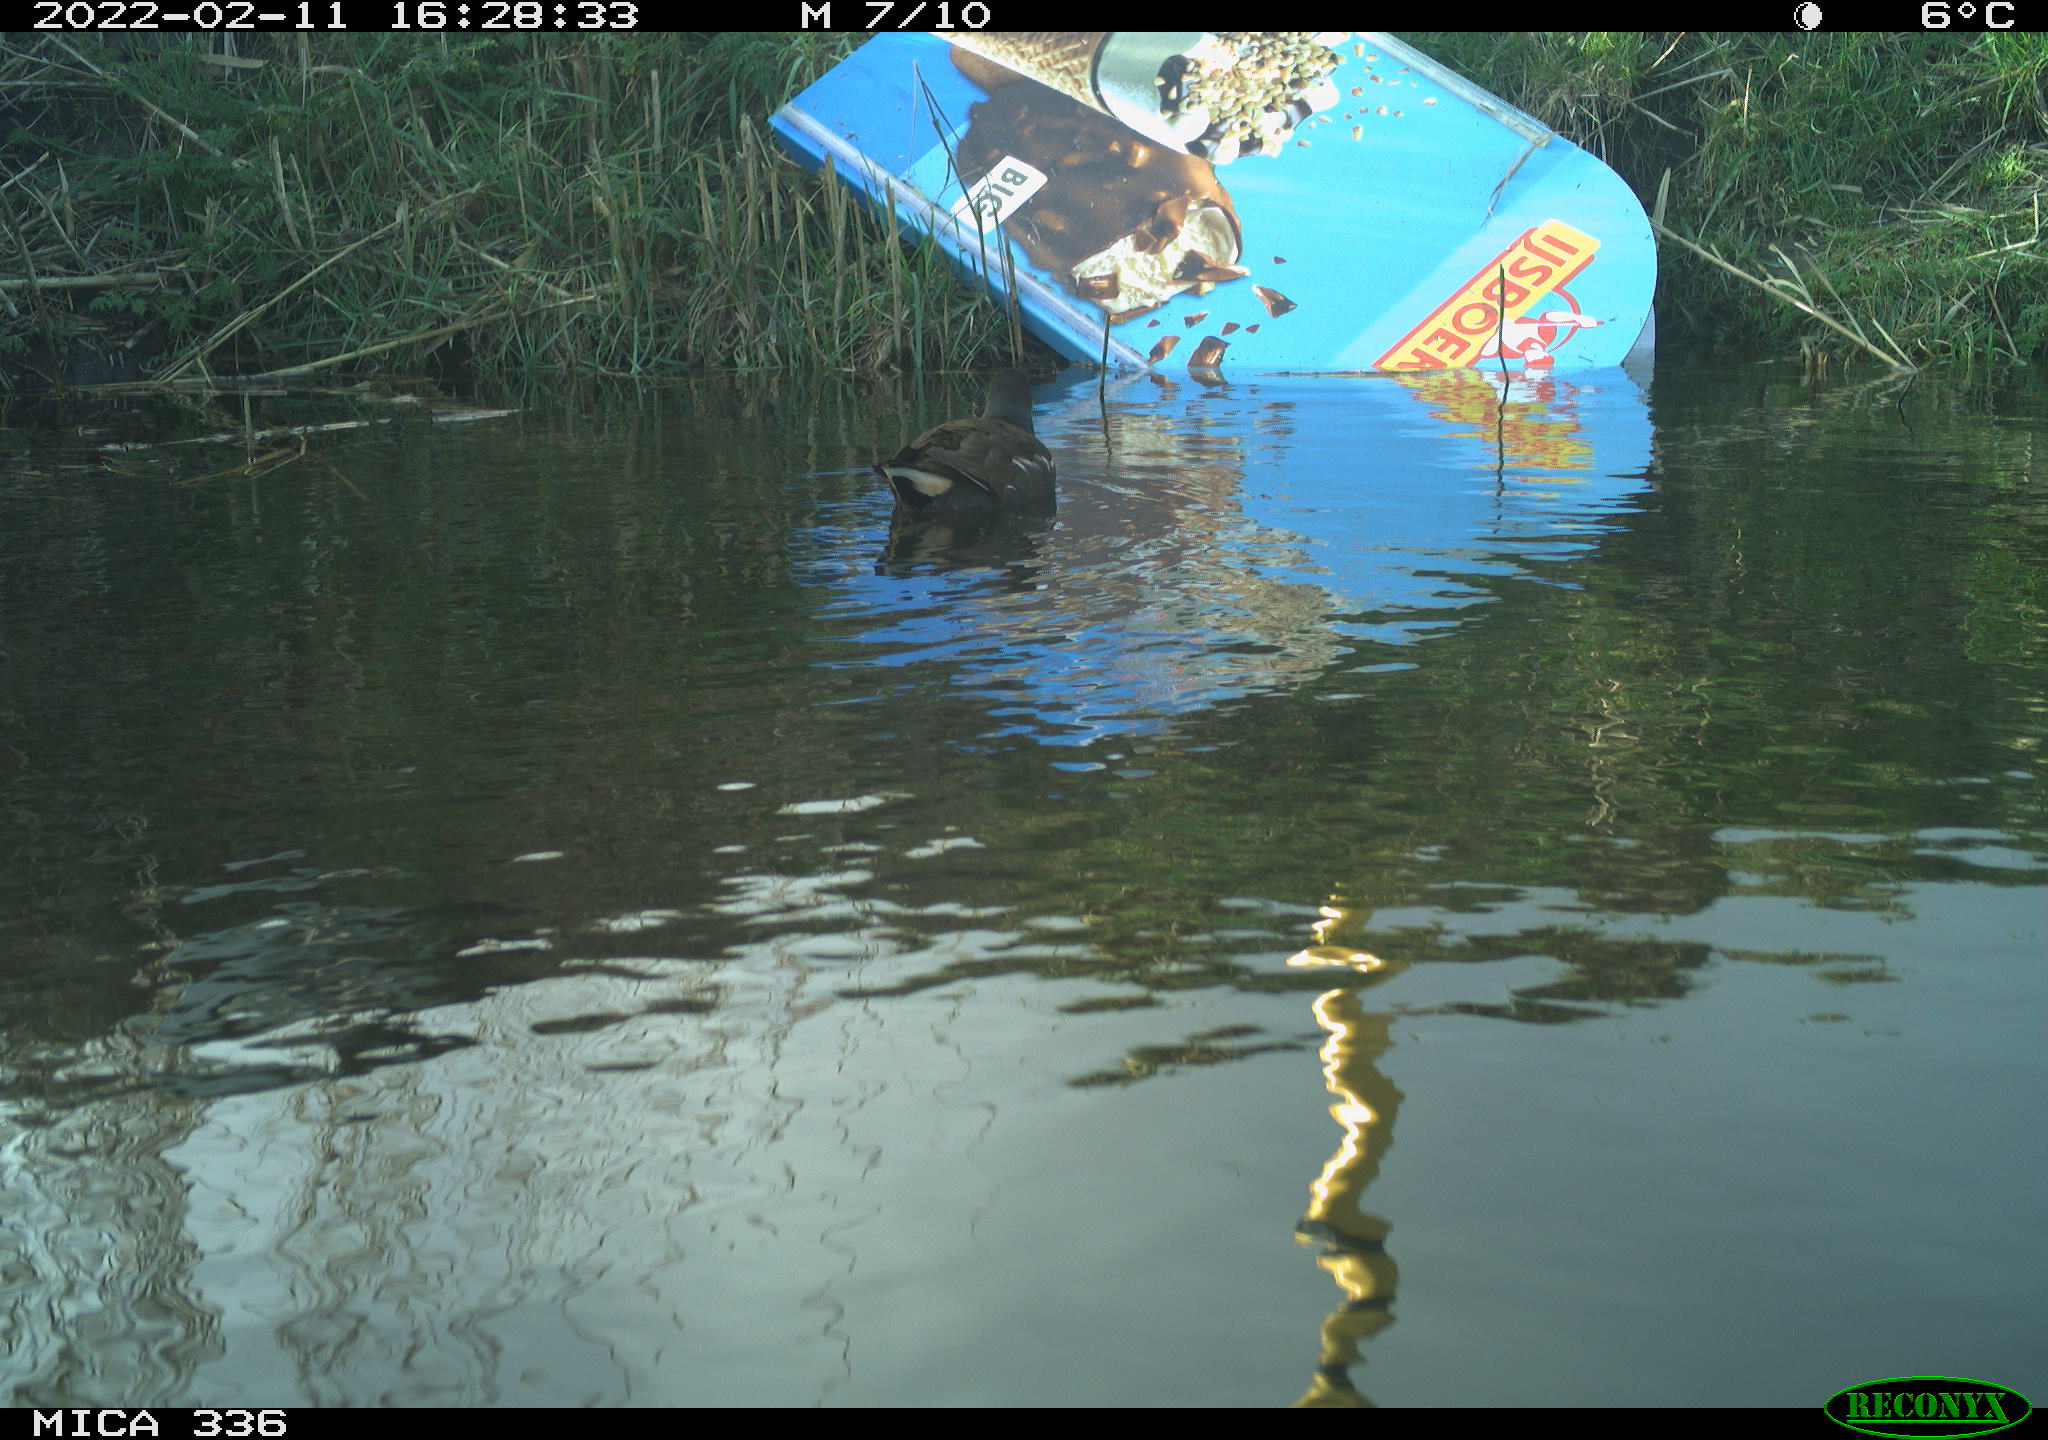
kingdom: Animalia
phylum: Chordata
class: Aves
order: Gruiformes
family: Rallidae
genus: Gallinula
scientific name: Gallinula chloropus
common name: Common moorhen
